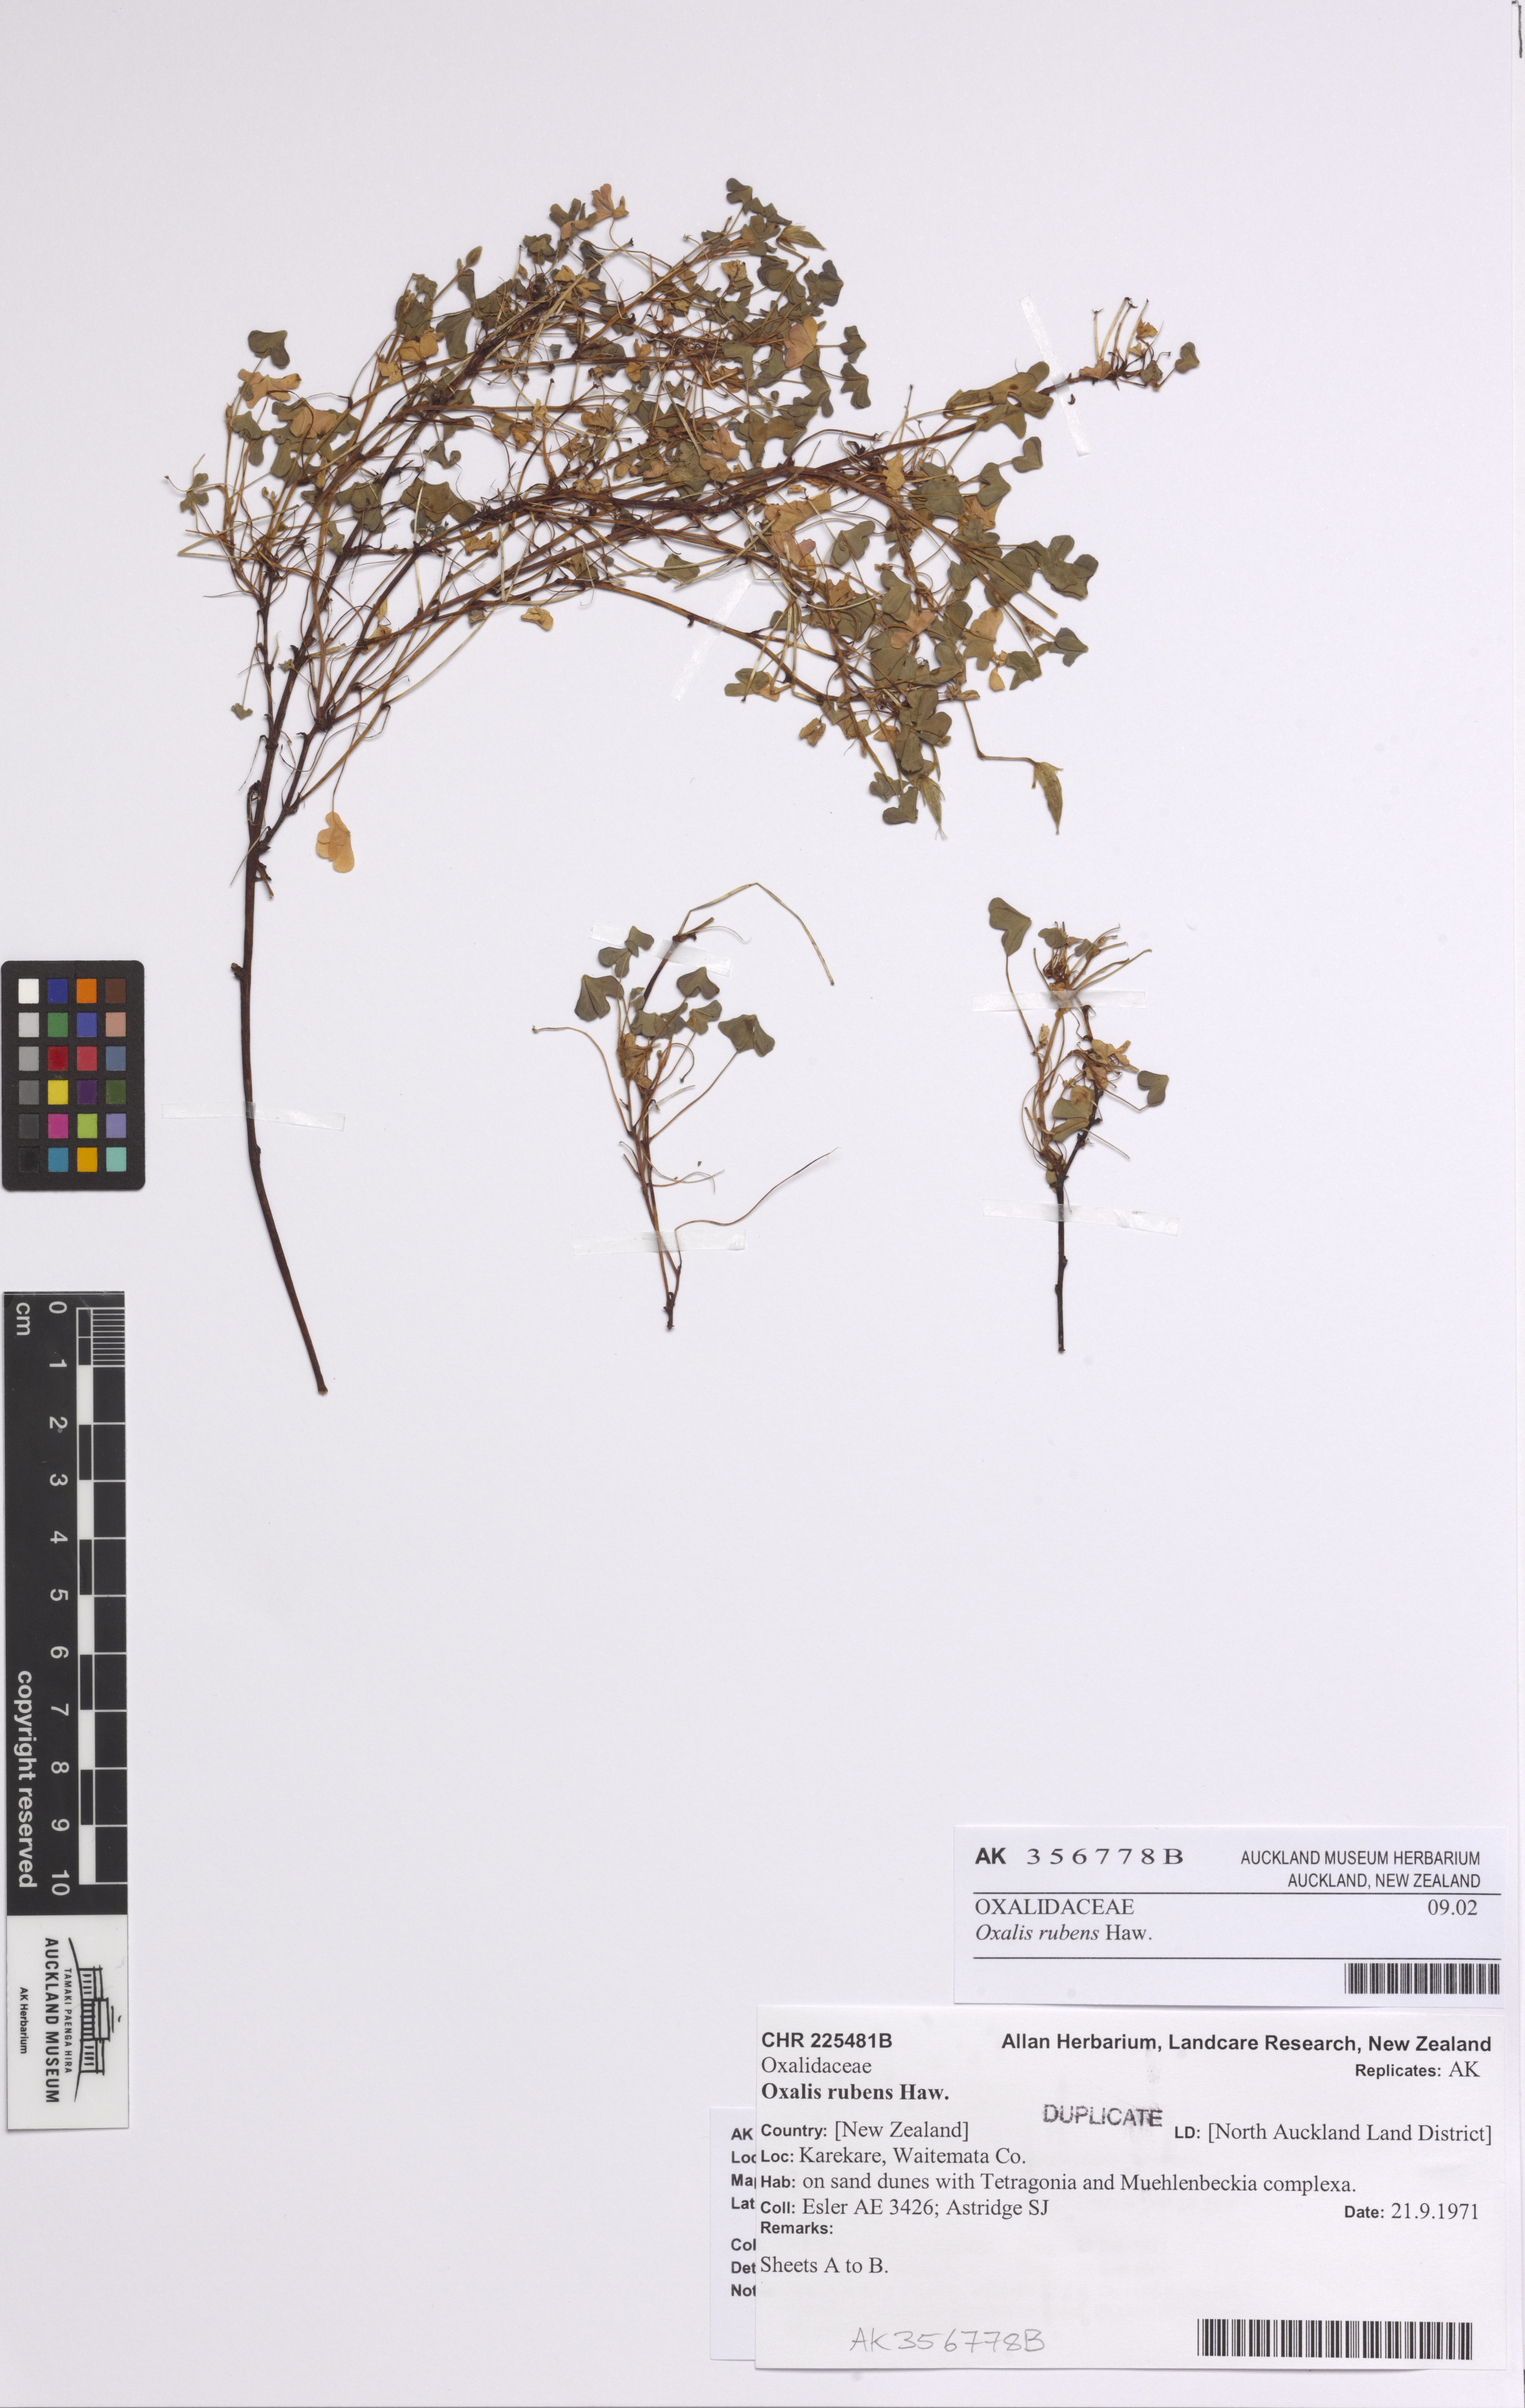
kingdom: Plantae
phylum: Tracheophyta
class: Magnoliopsida
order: Oxalidales
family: Oxalidaceae
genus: Oxalis
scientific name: Oxalis rubens
